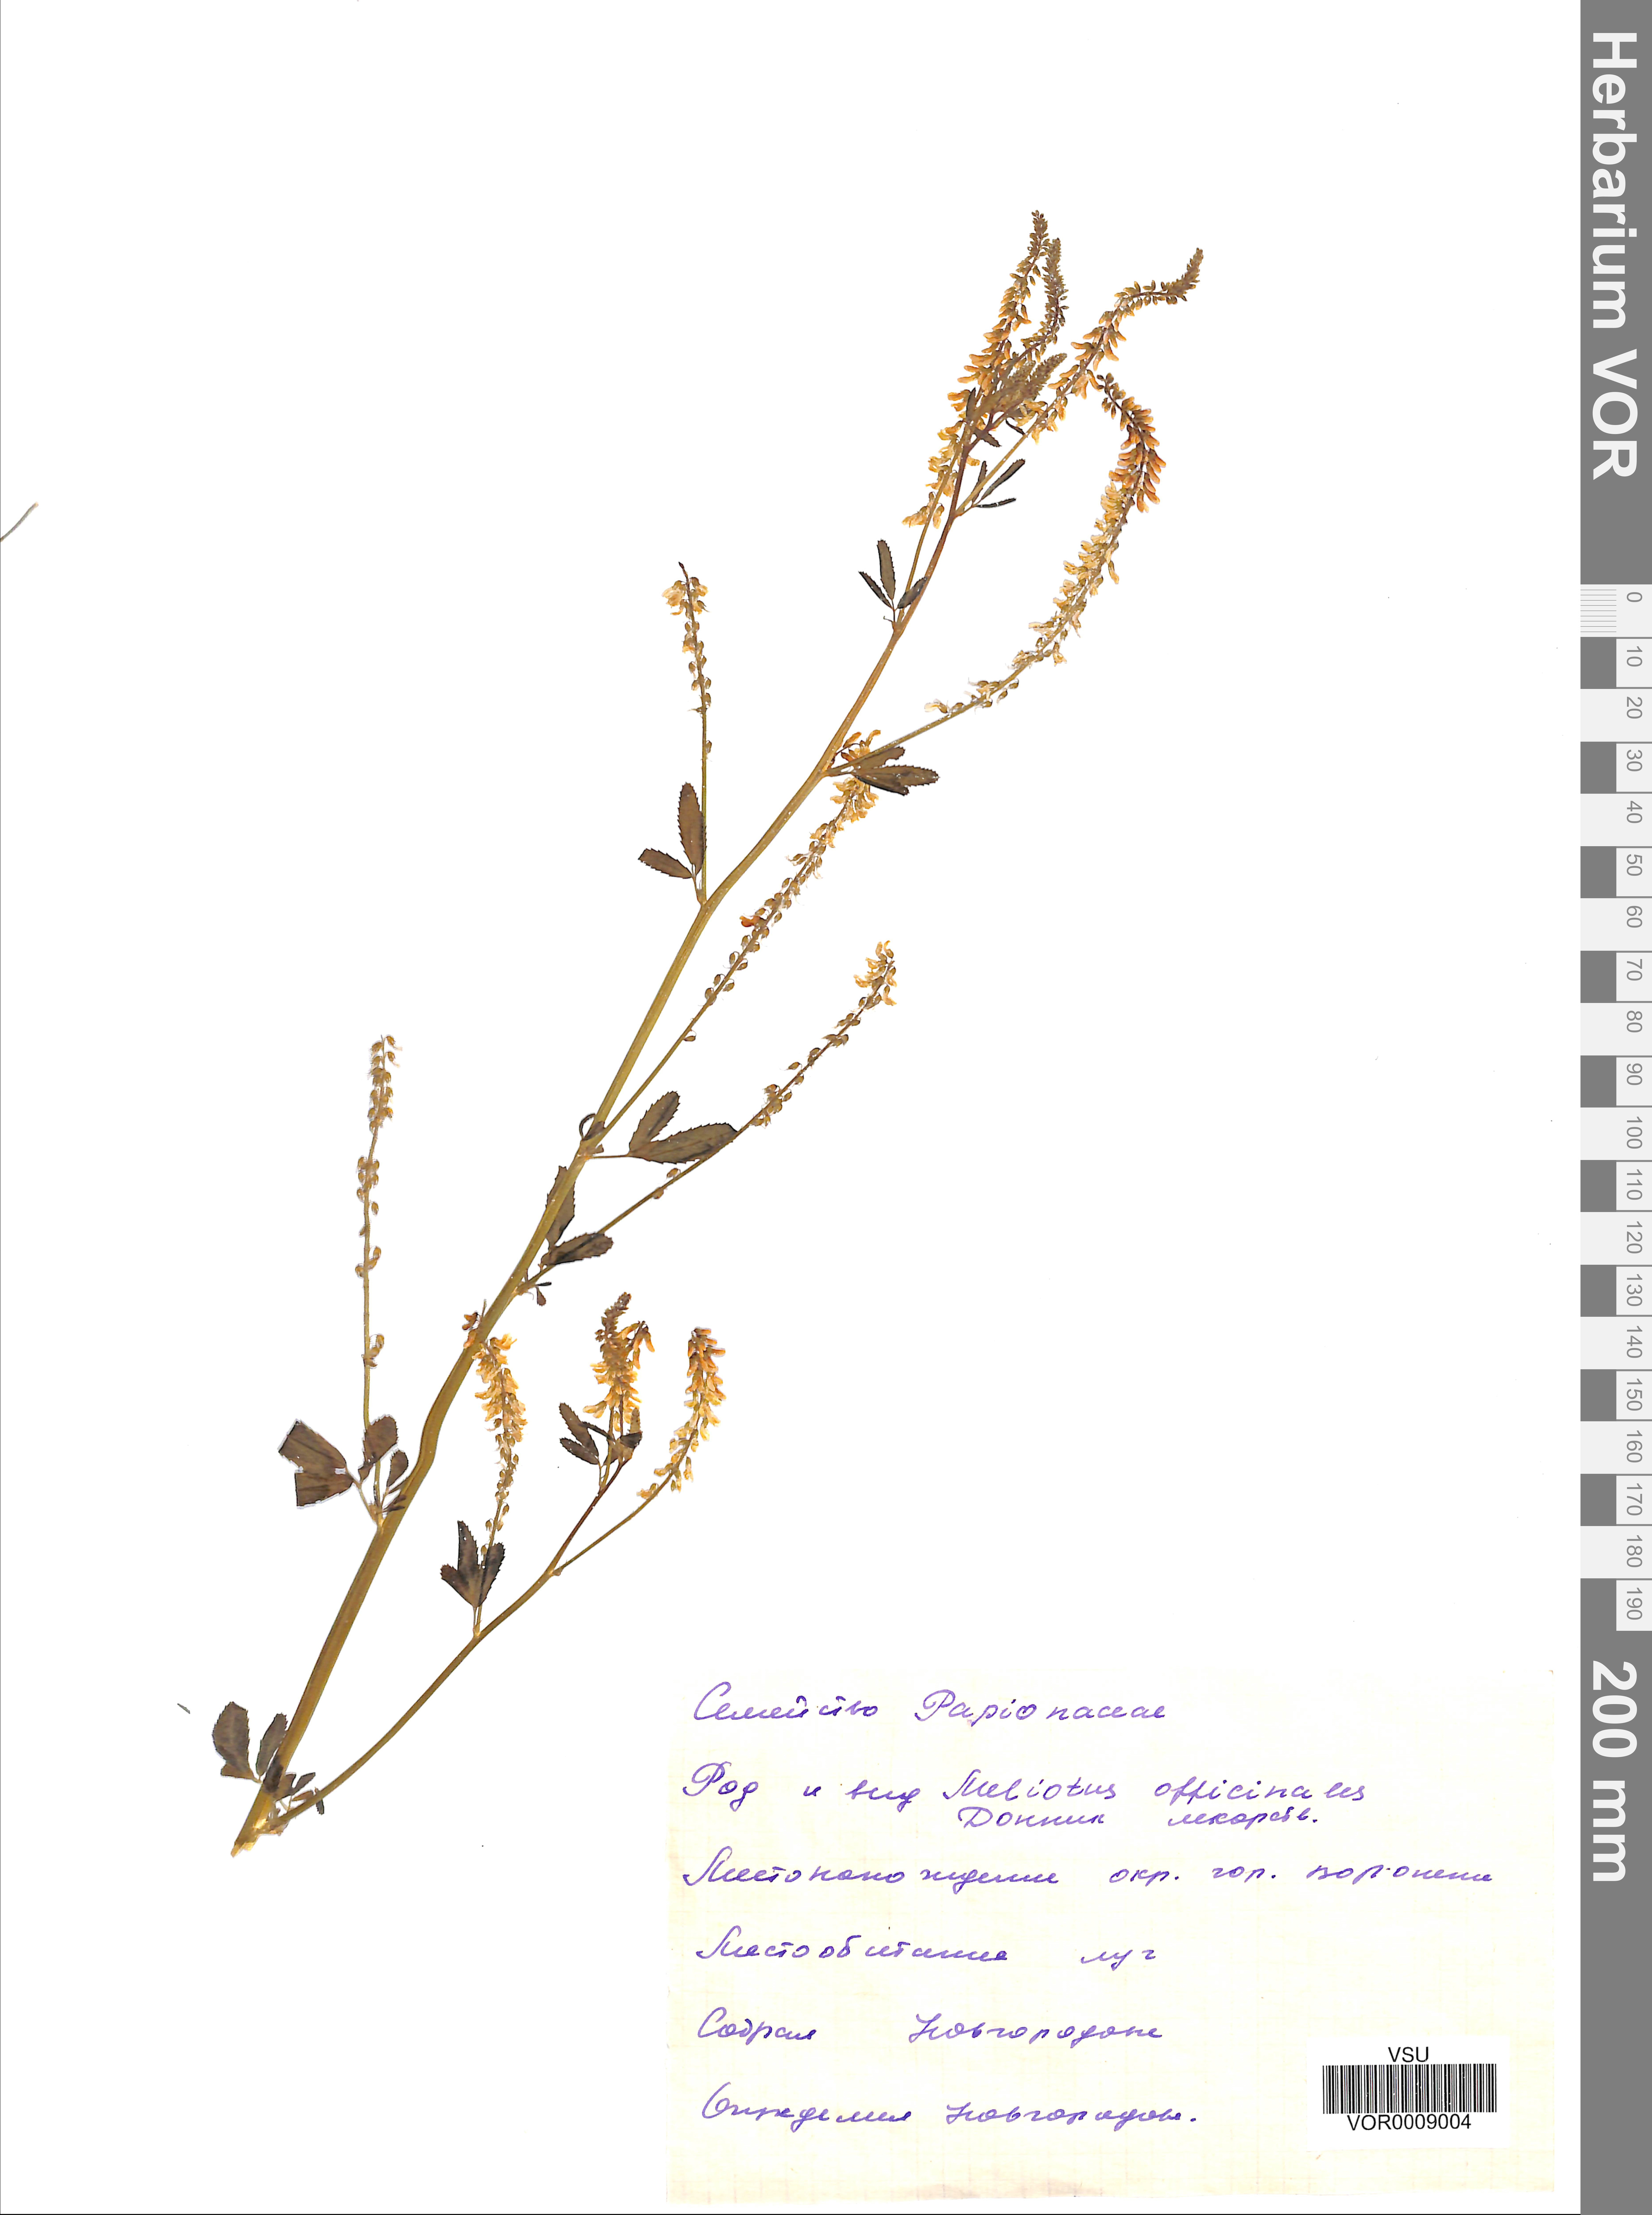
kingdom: Plantae
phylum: Tracheophyta
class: Magnoliopsida
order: Fabales
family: Fabaceae
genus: Melilotus
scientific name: Melilotus officinalis
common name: Sweetclover
